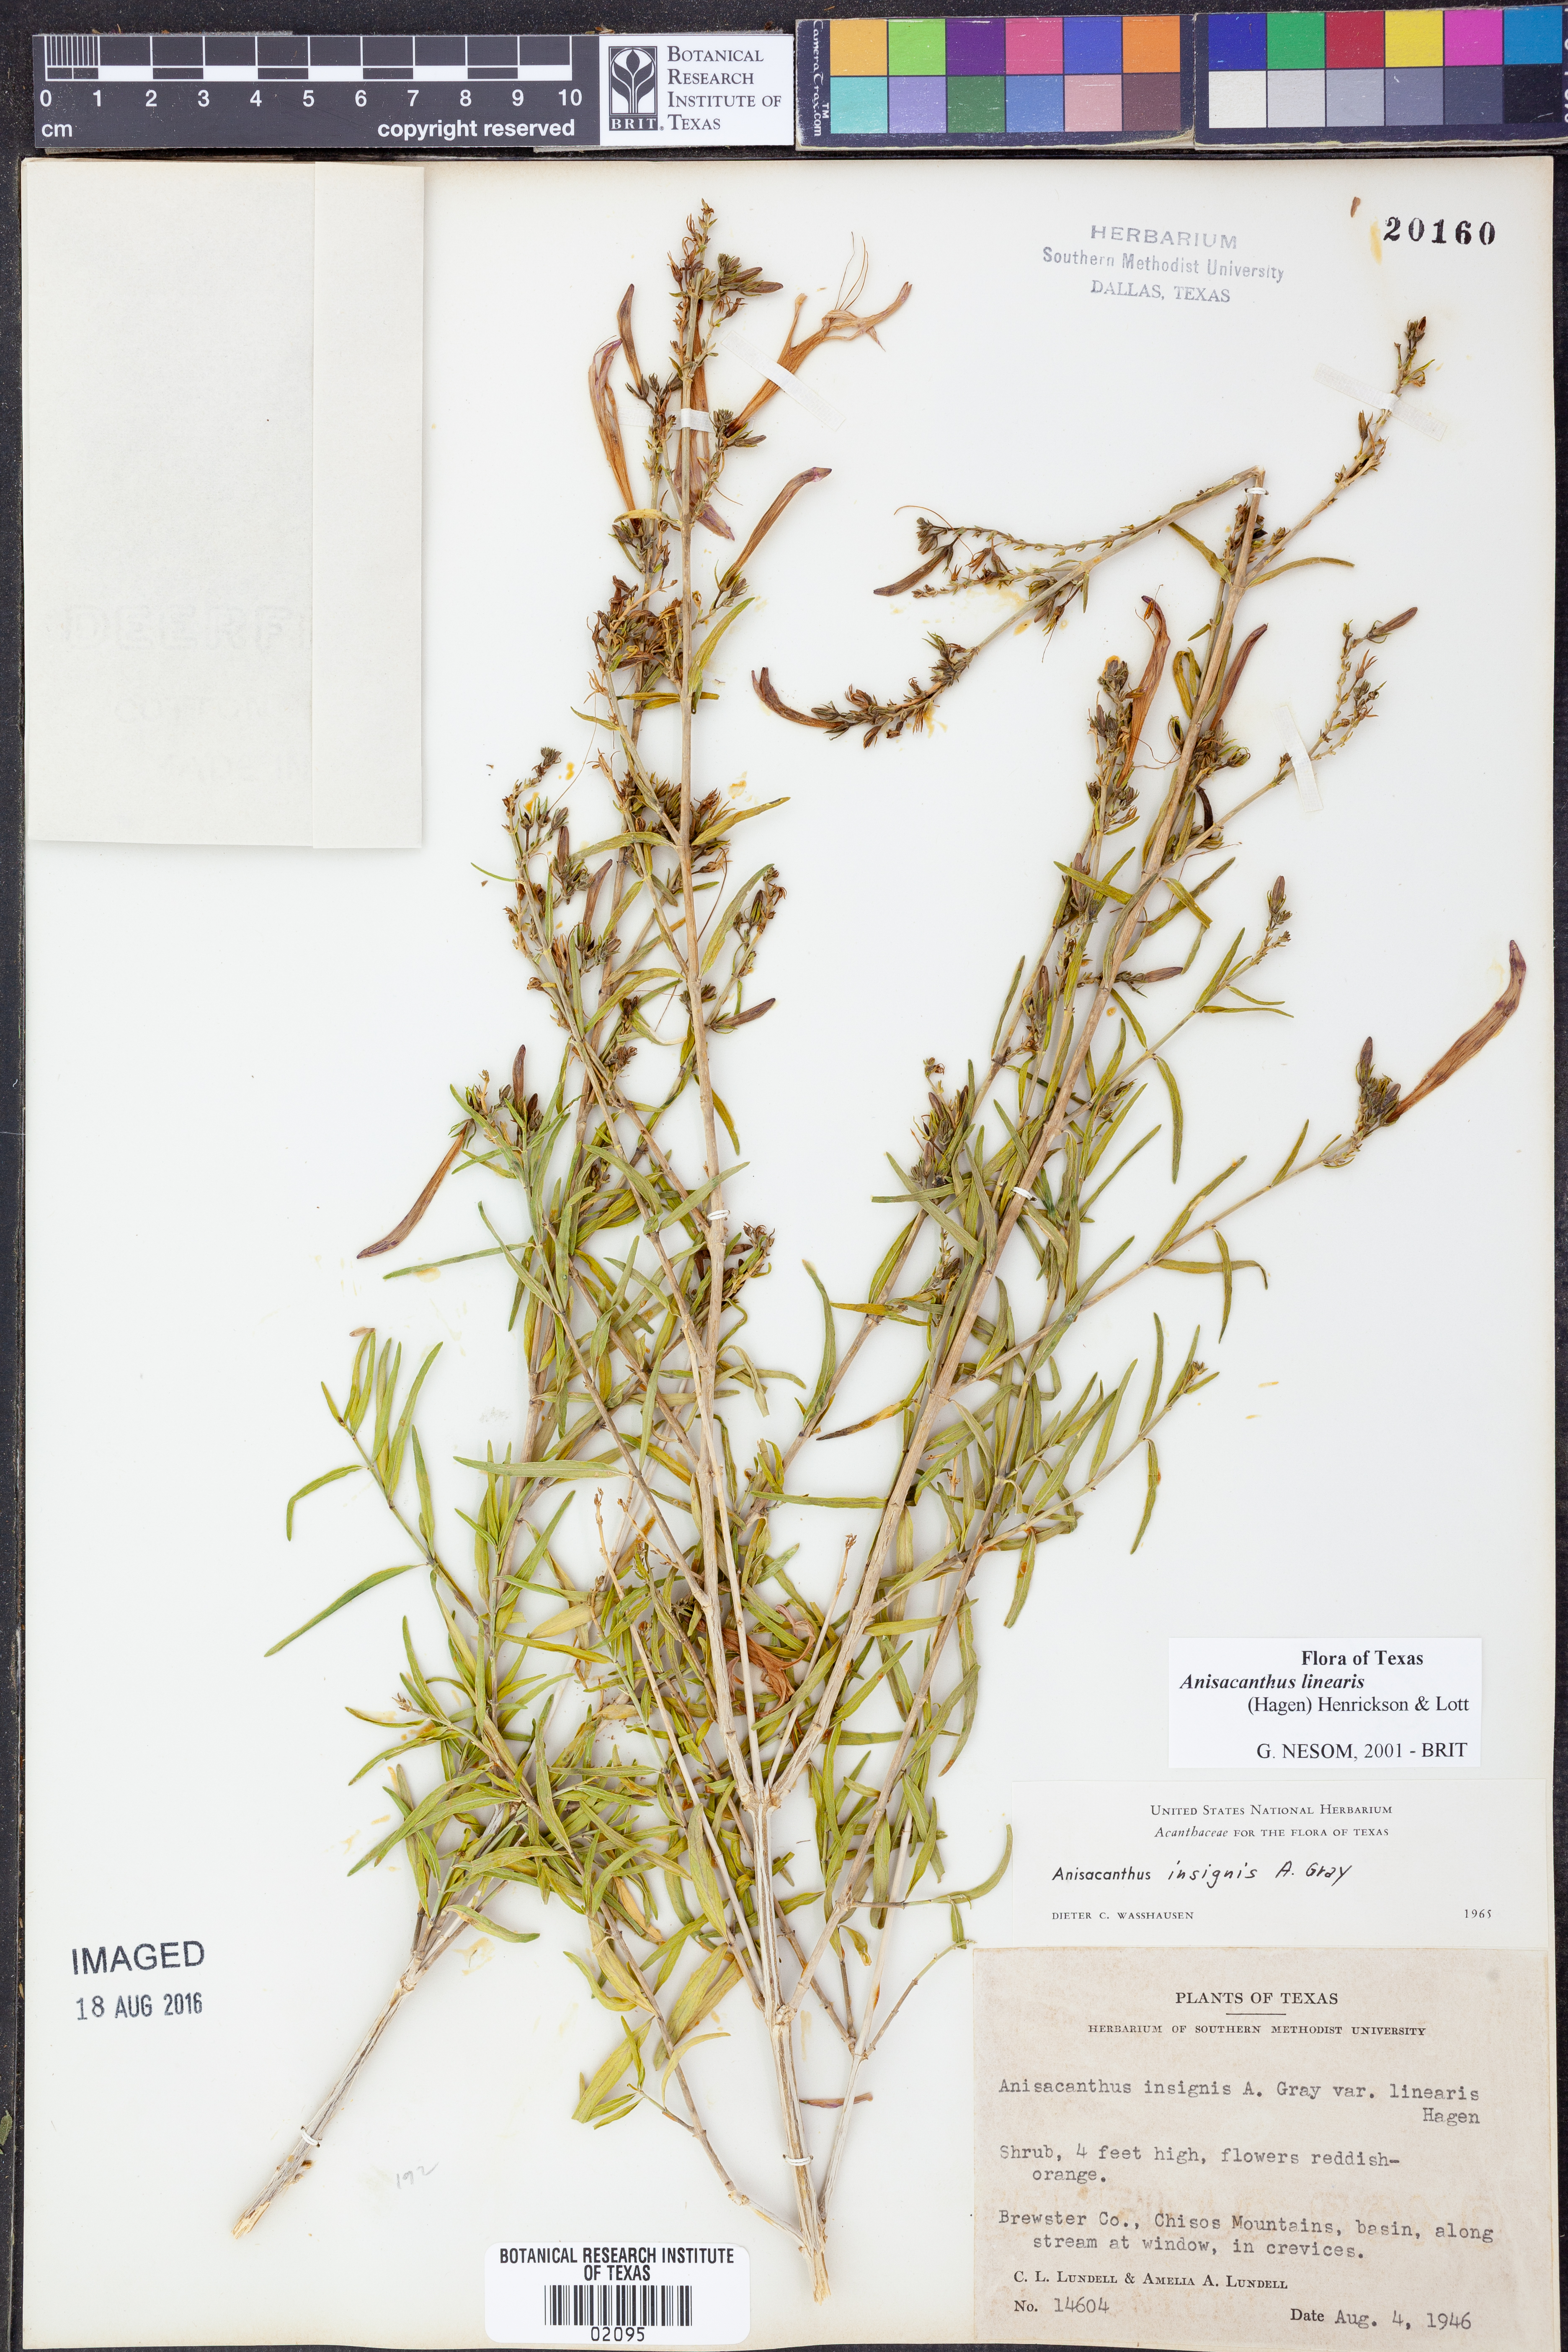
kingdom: Plantae
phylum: Tracheophyta
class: Magnoliopsida
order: Lamiales
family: Acanthaceae
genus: Anisacanthus
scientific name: Anisacanthus linearis
